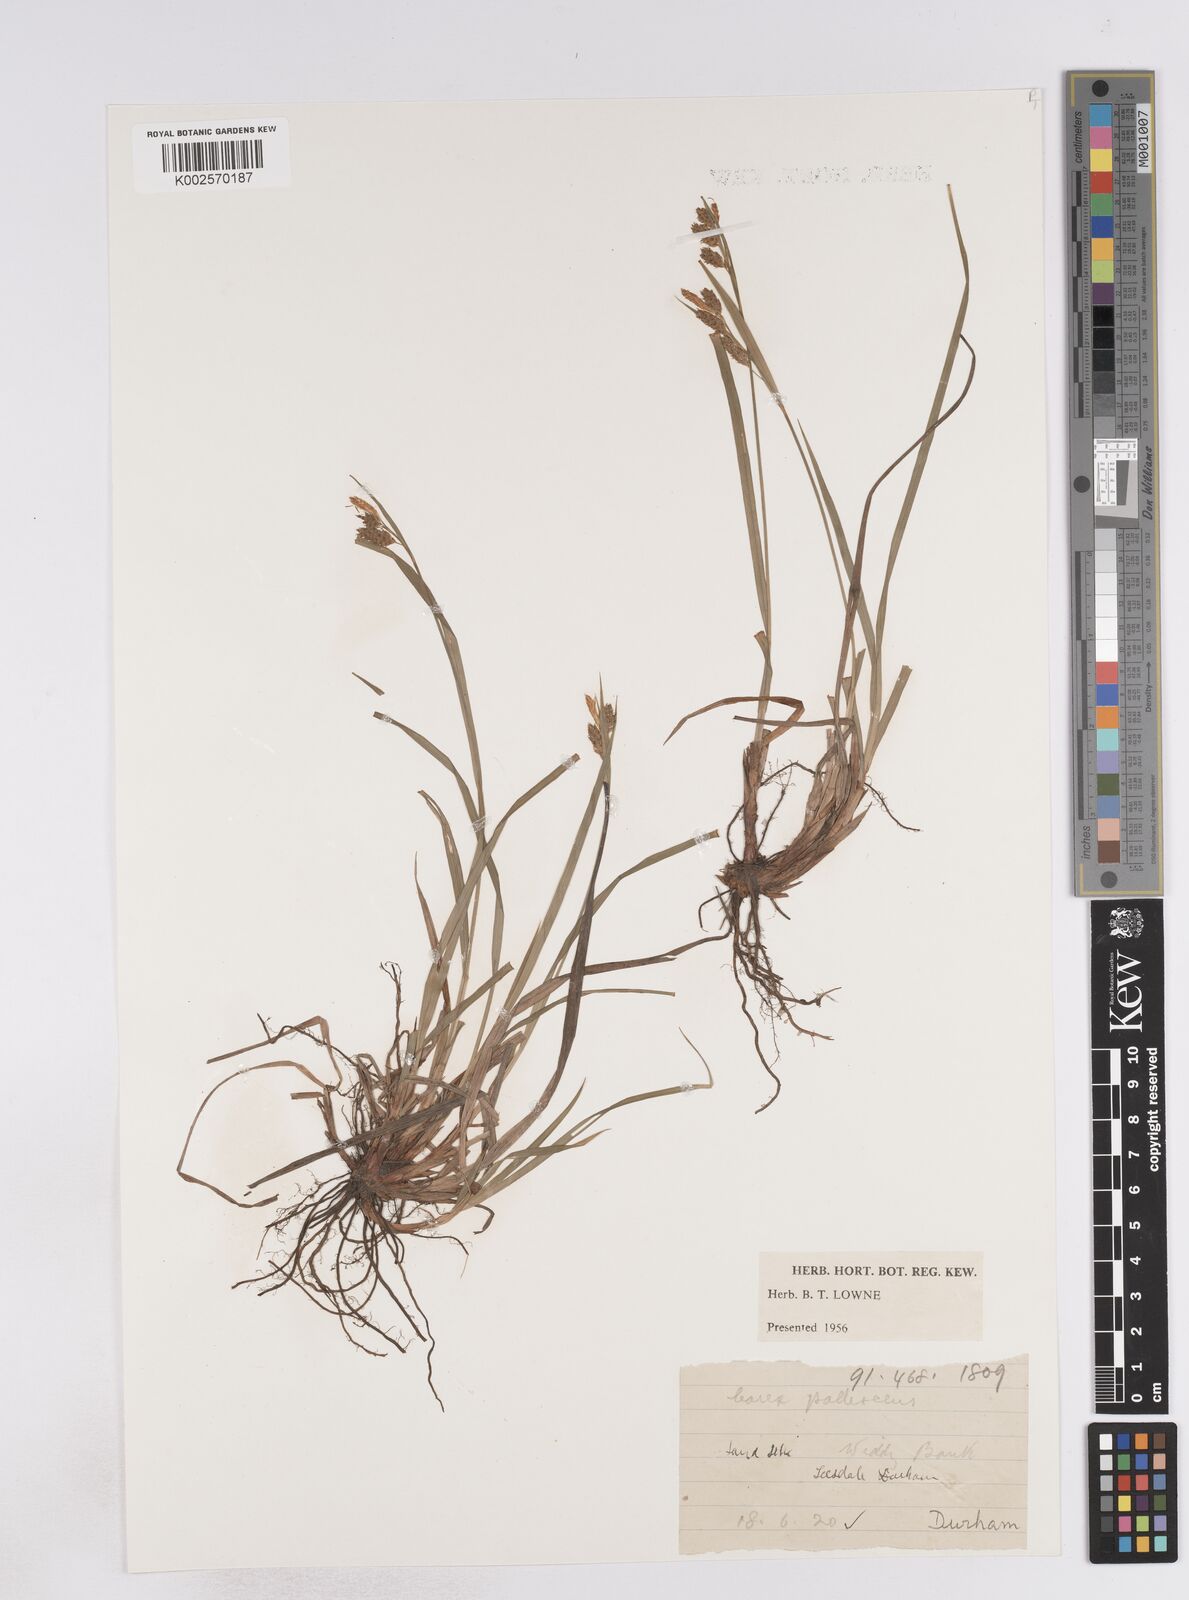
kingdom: Plantae
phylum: Tracheophyta
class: Liliopsida
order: Poales
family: Cyperaceae
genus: Carex
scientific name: Carex pallescens
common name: Pale sedge
